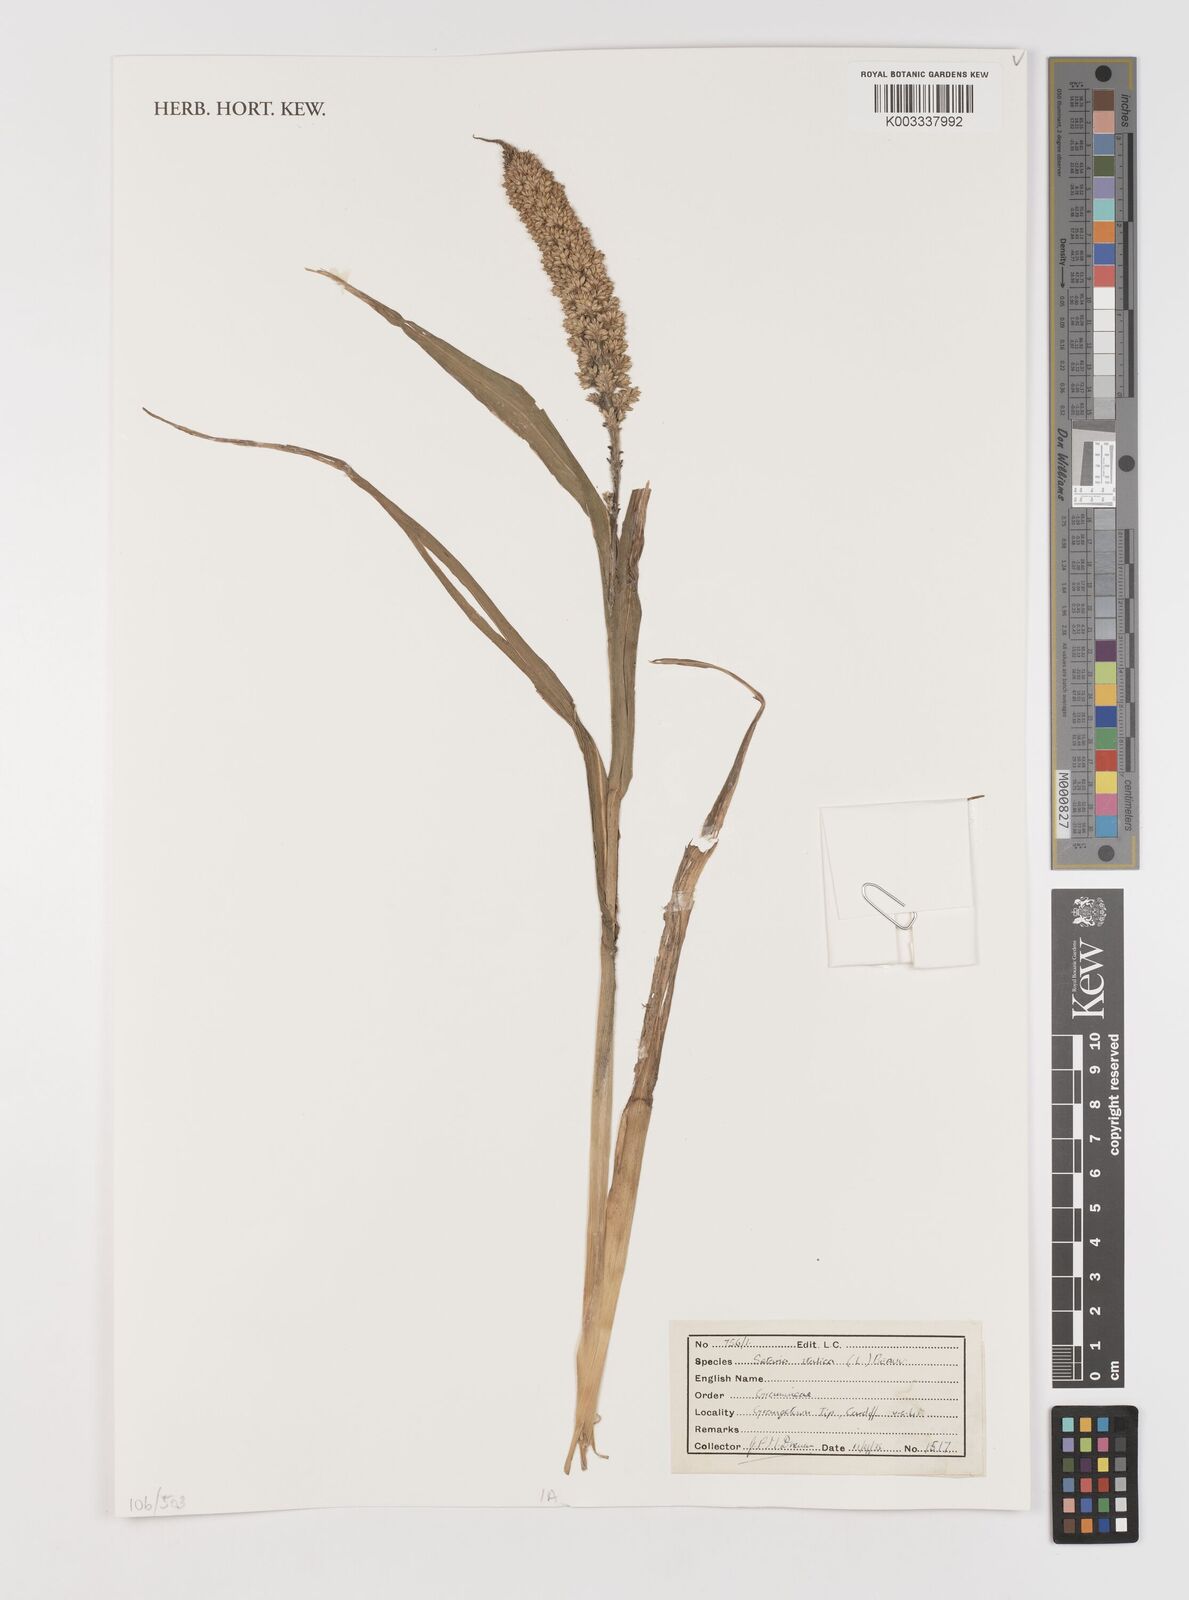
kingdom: Plantae
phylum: Tracheophyta
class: Liliopsida
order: Poales
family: Poaceae
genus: Setaria
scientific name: Setaria italica
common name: Foxtail bristle-grass
